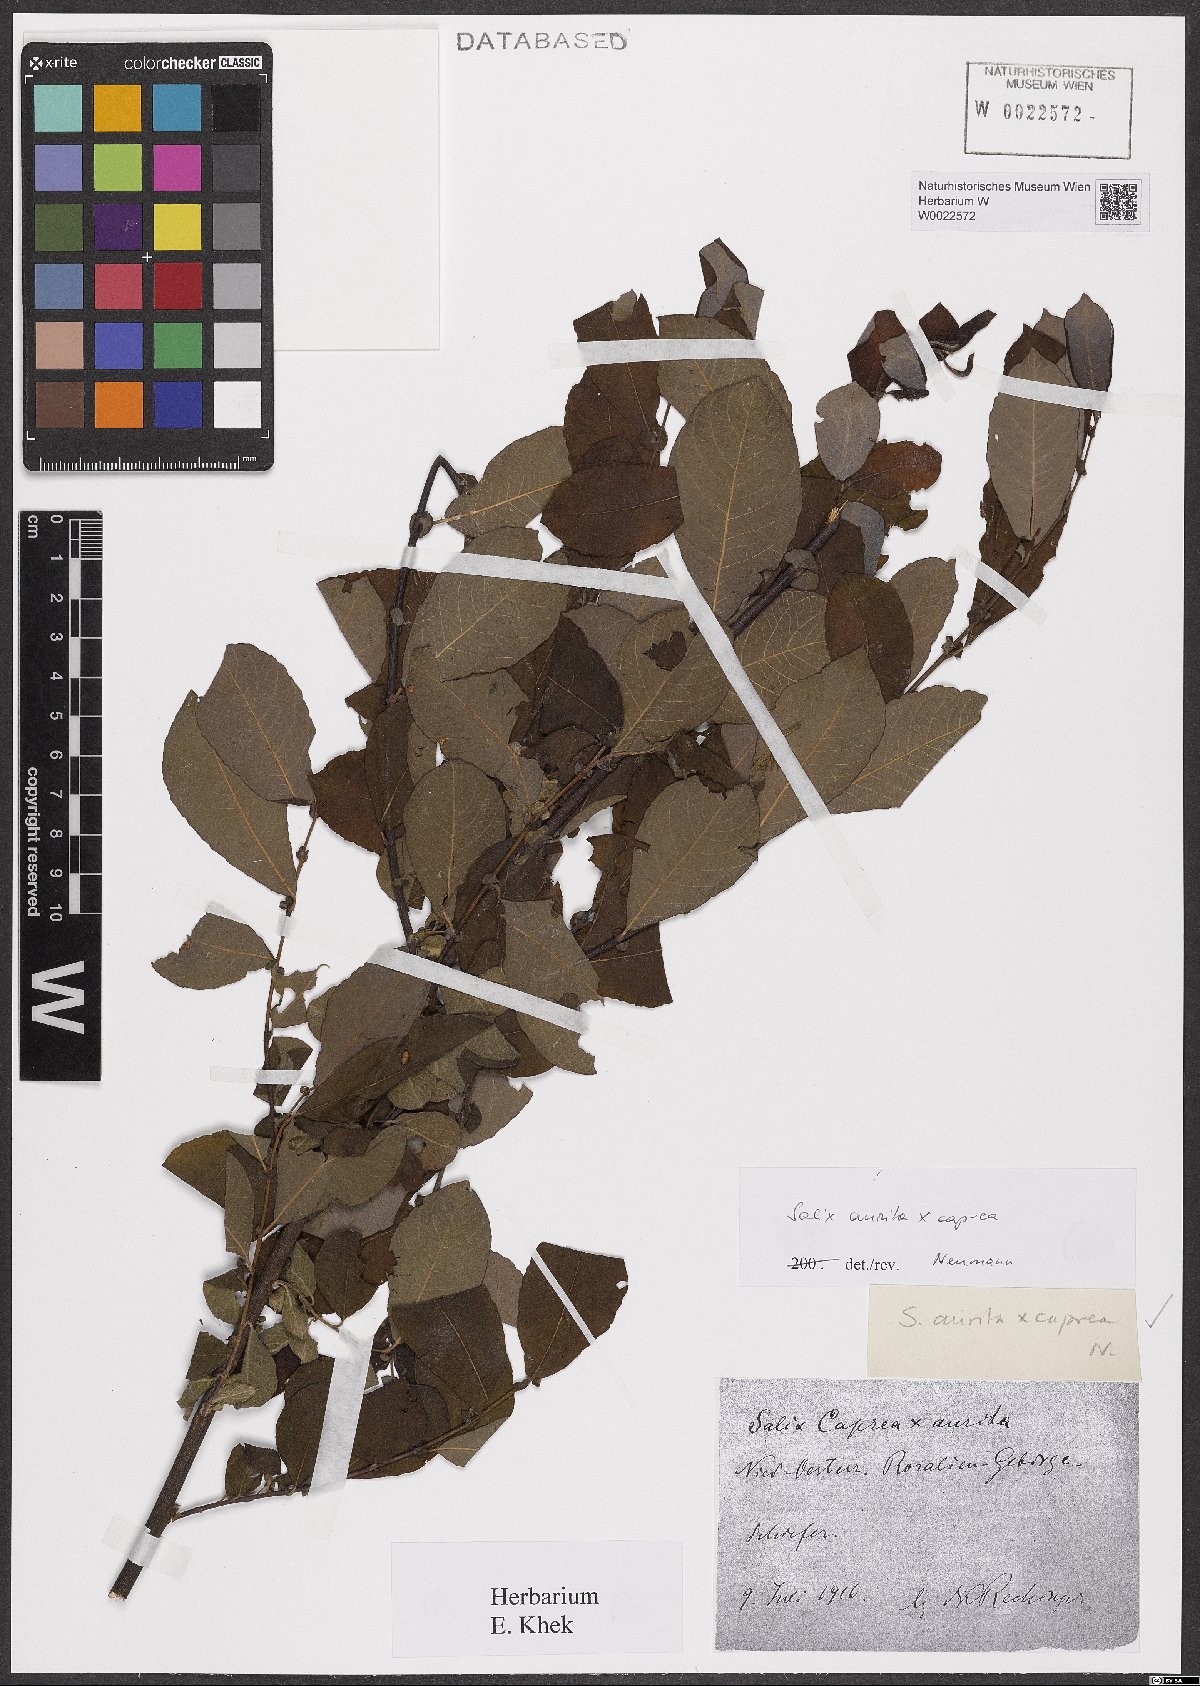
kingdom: Plantae
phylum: Tracheophyta
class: Magnoliopsida
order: Malpighiales
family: Salicaceae
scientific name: Salicaceae
